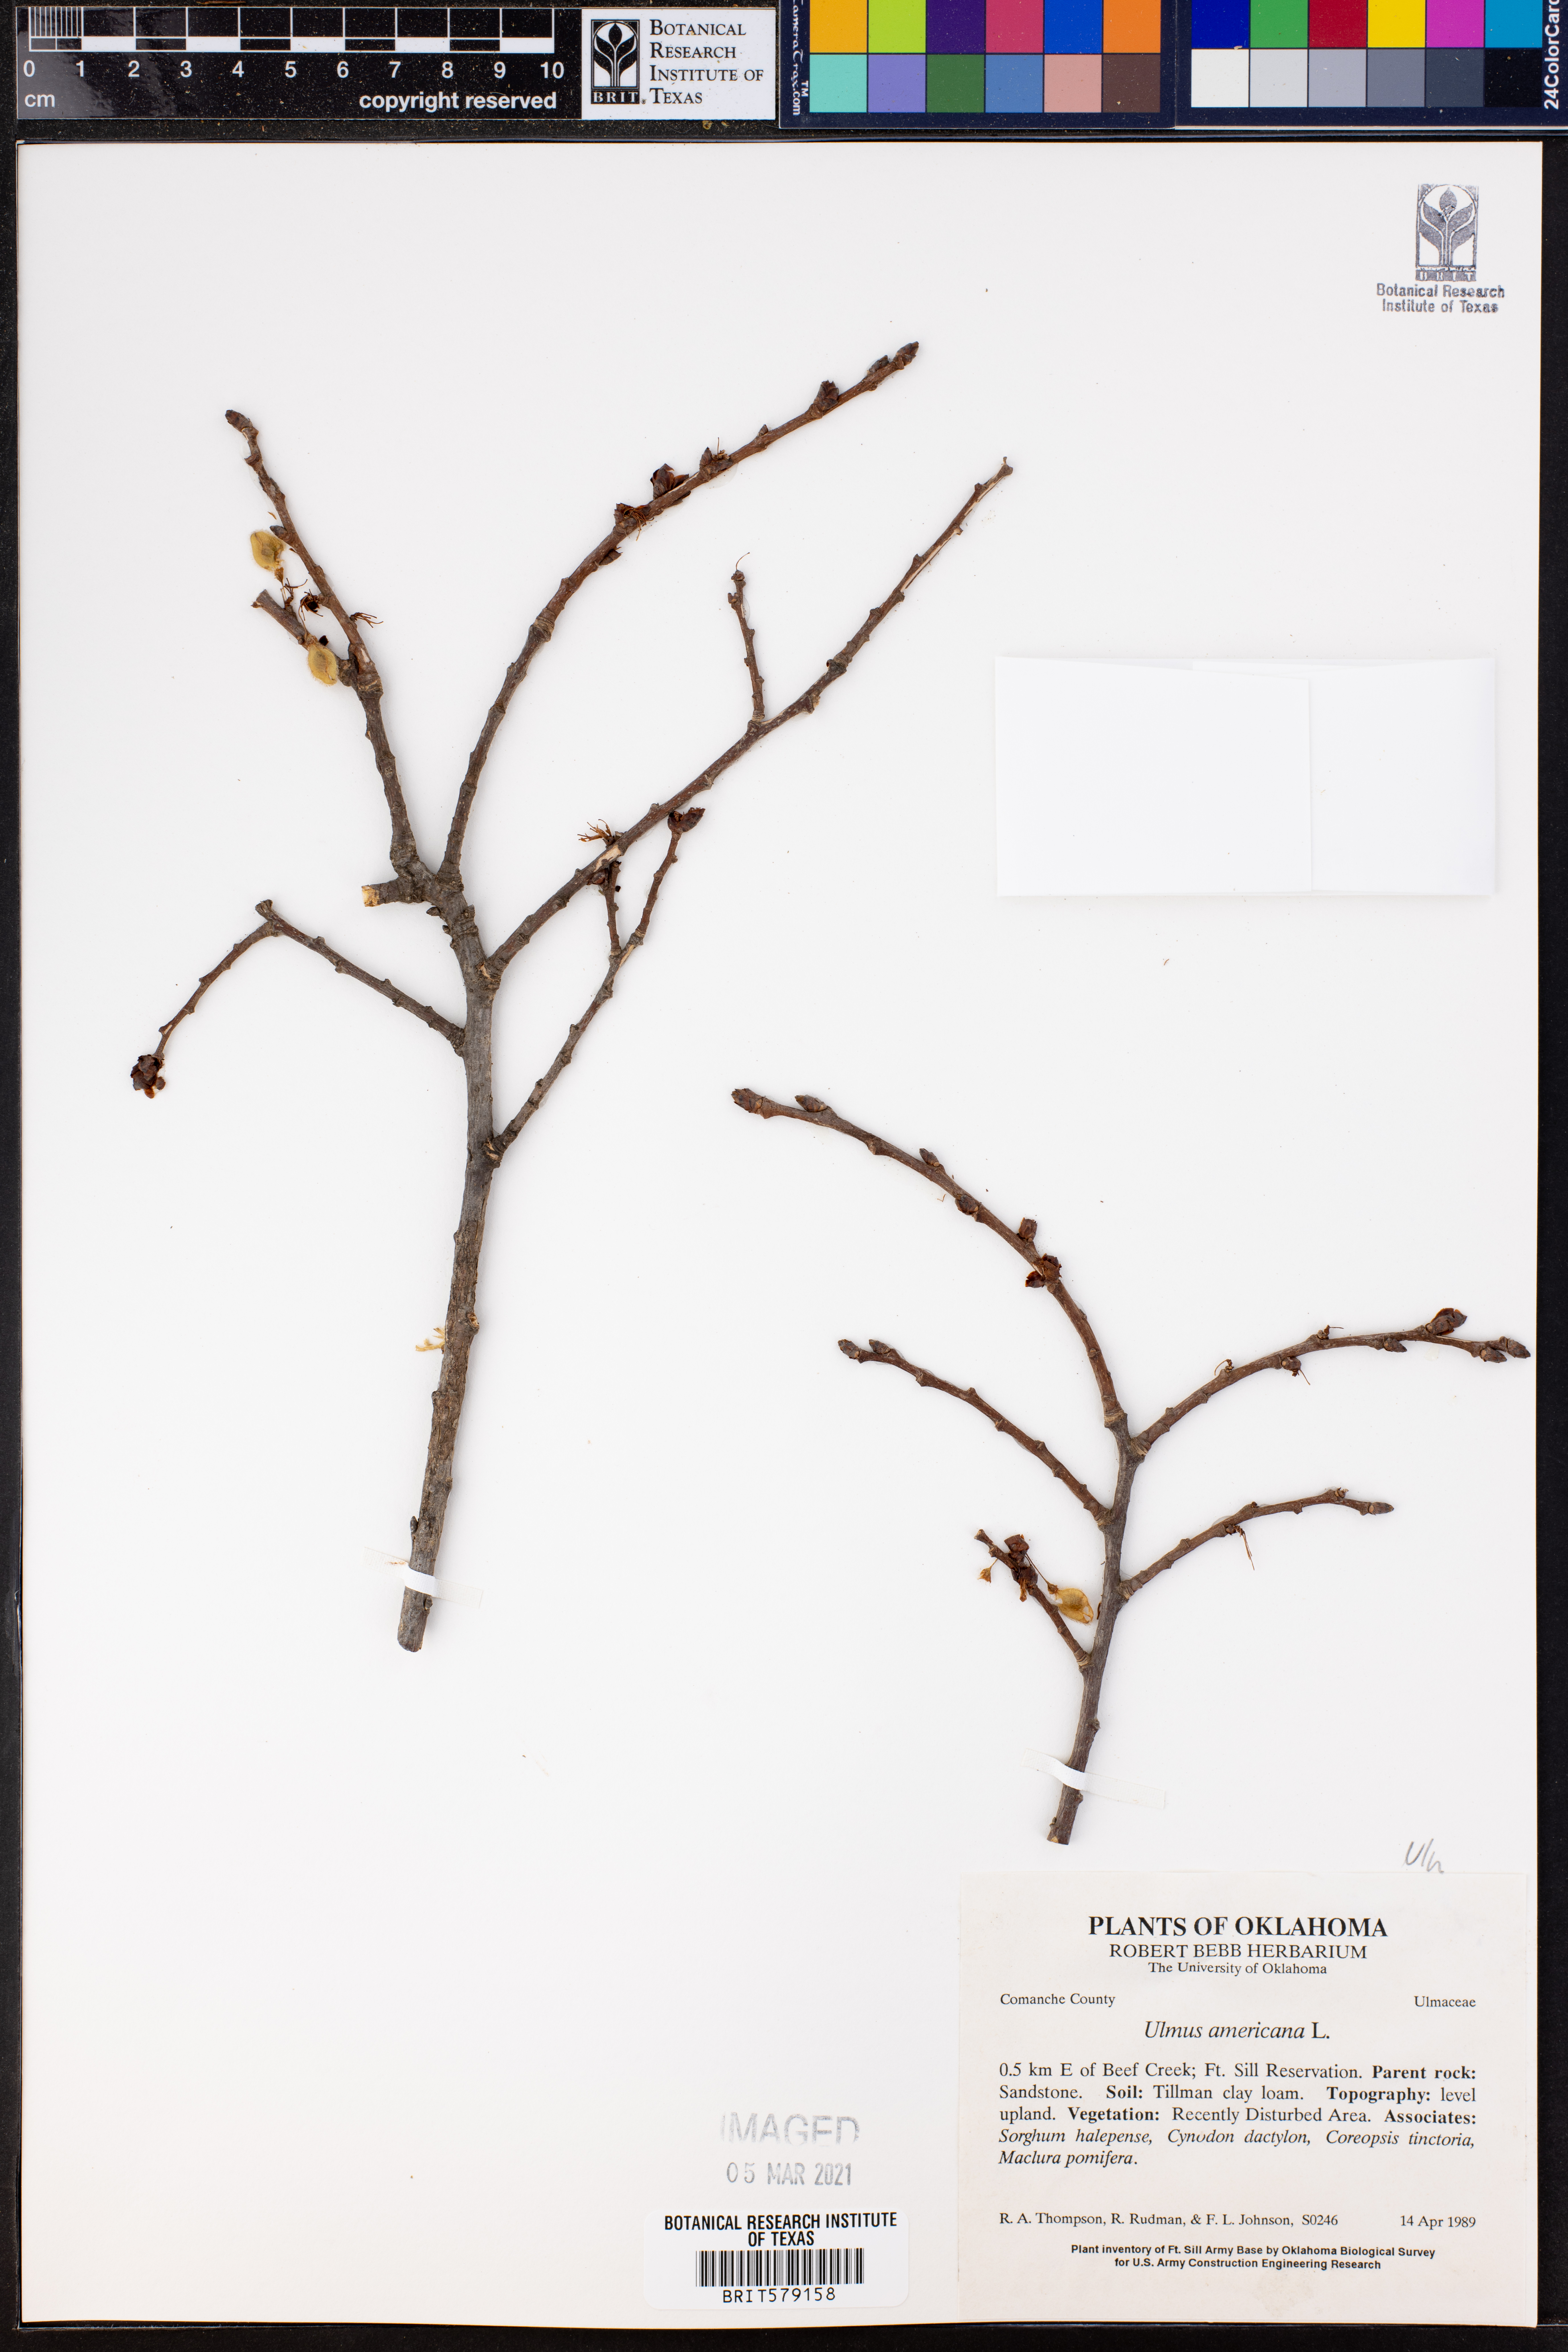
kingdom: Plantae
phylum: Tracheophyta
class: Magnoliopsida
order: Rosales
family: Ulmaceae
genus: Ulmus
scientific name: Ulmus americana
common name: American elm
